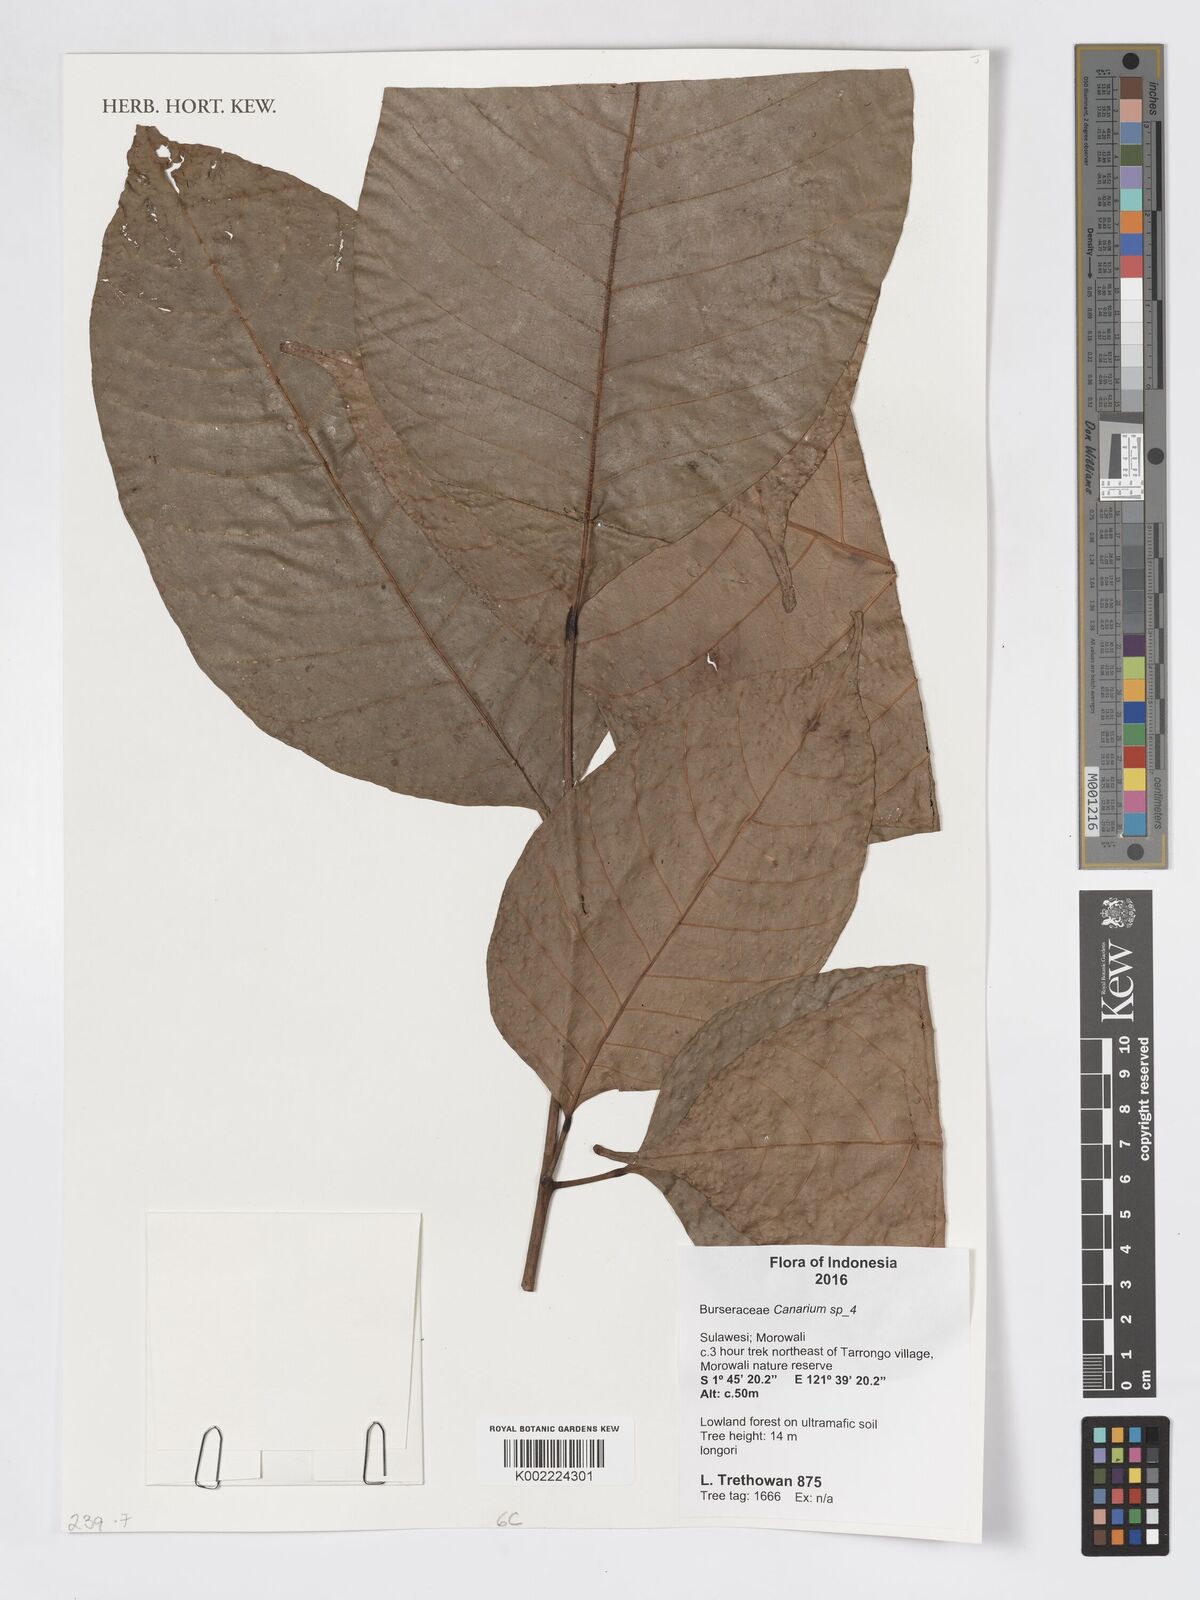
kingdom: Plantae
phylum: Tracheophyta
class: Magnoliopsida
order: Sapindales
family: Burseraceae
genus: Canarium
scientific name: Canarium
